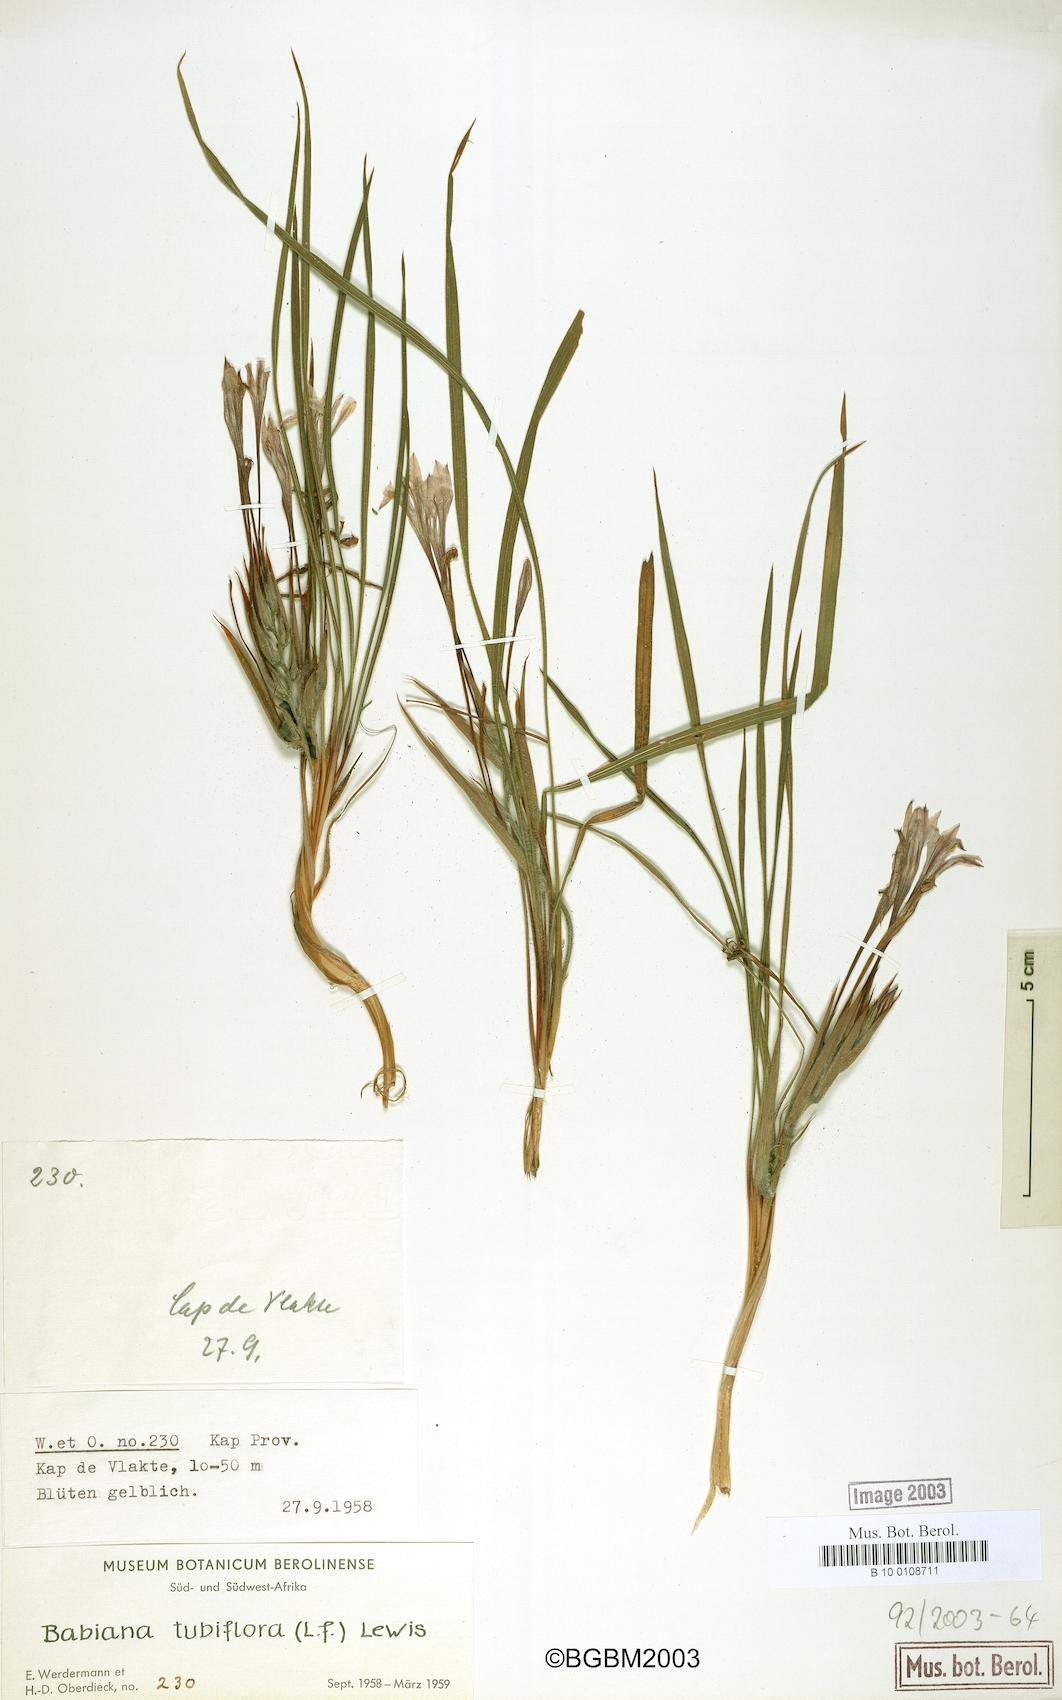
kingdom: Plantae
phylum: Tracheophyta
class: Liliopsida
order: Asparagales
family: Iridaceae
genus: Babiana
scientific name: Babiana tubiflora
